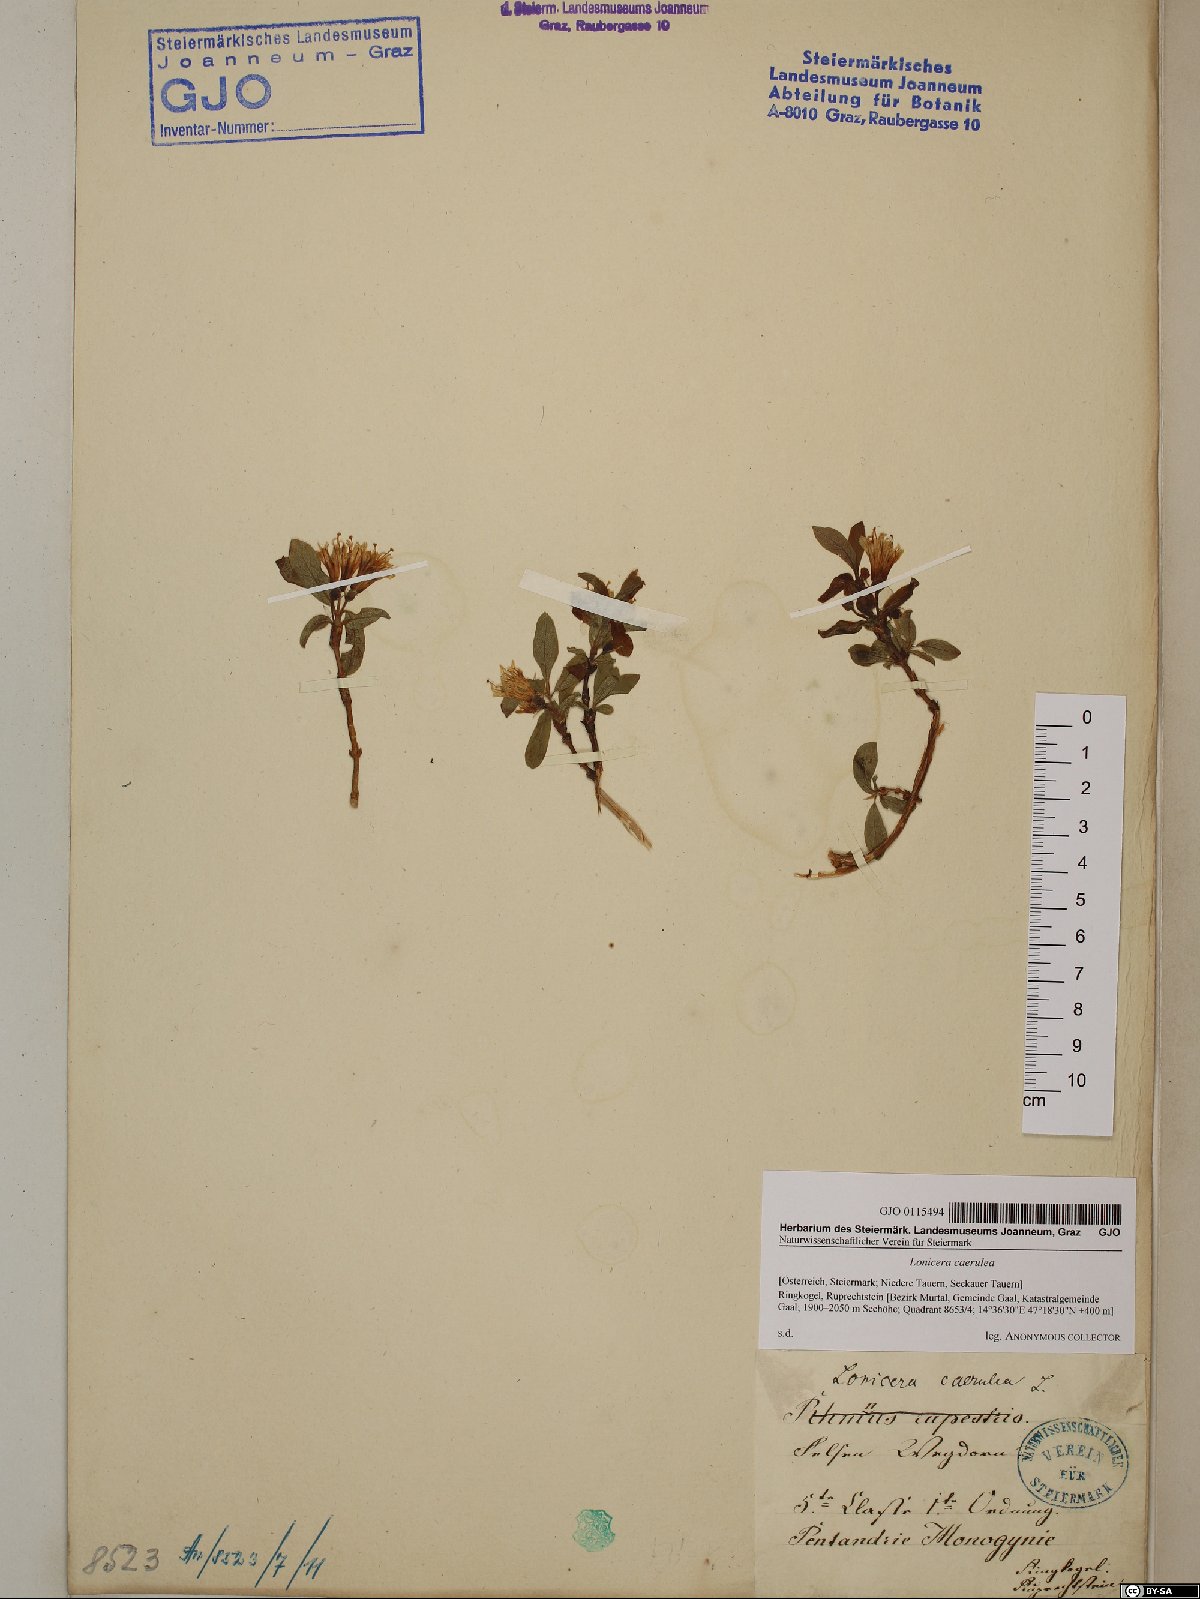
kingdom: Plantae
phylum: Tracheophyta
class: Magnoliopsida
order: Dipsacales
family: Caprifoliaceae
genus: Lonicera
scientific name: Lonicera caerulea
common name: Blue honeysuckle
